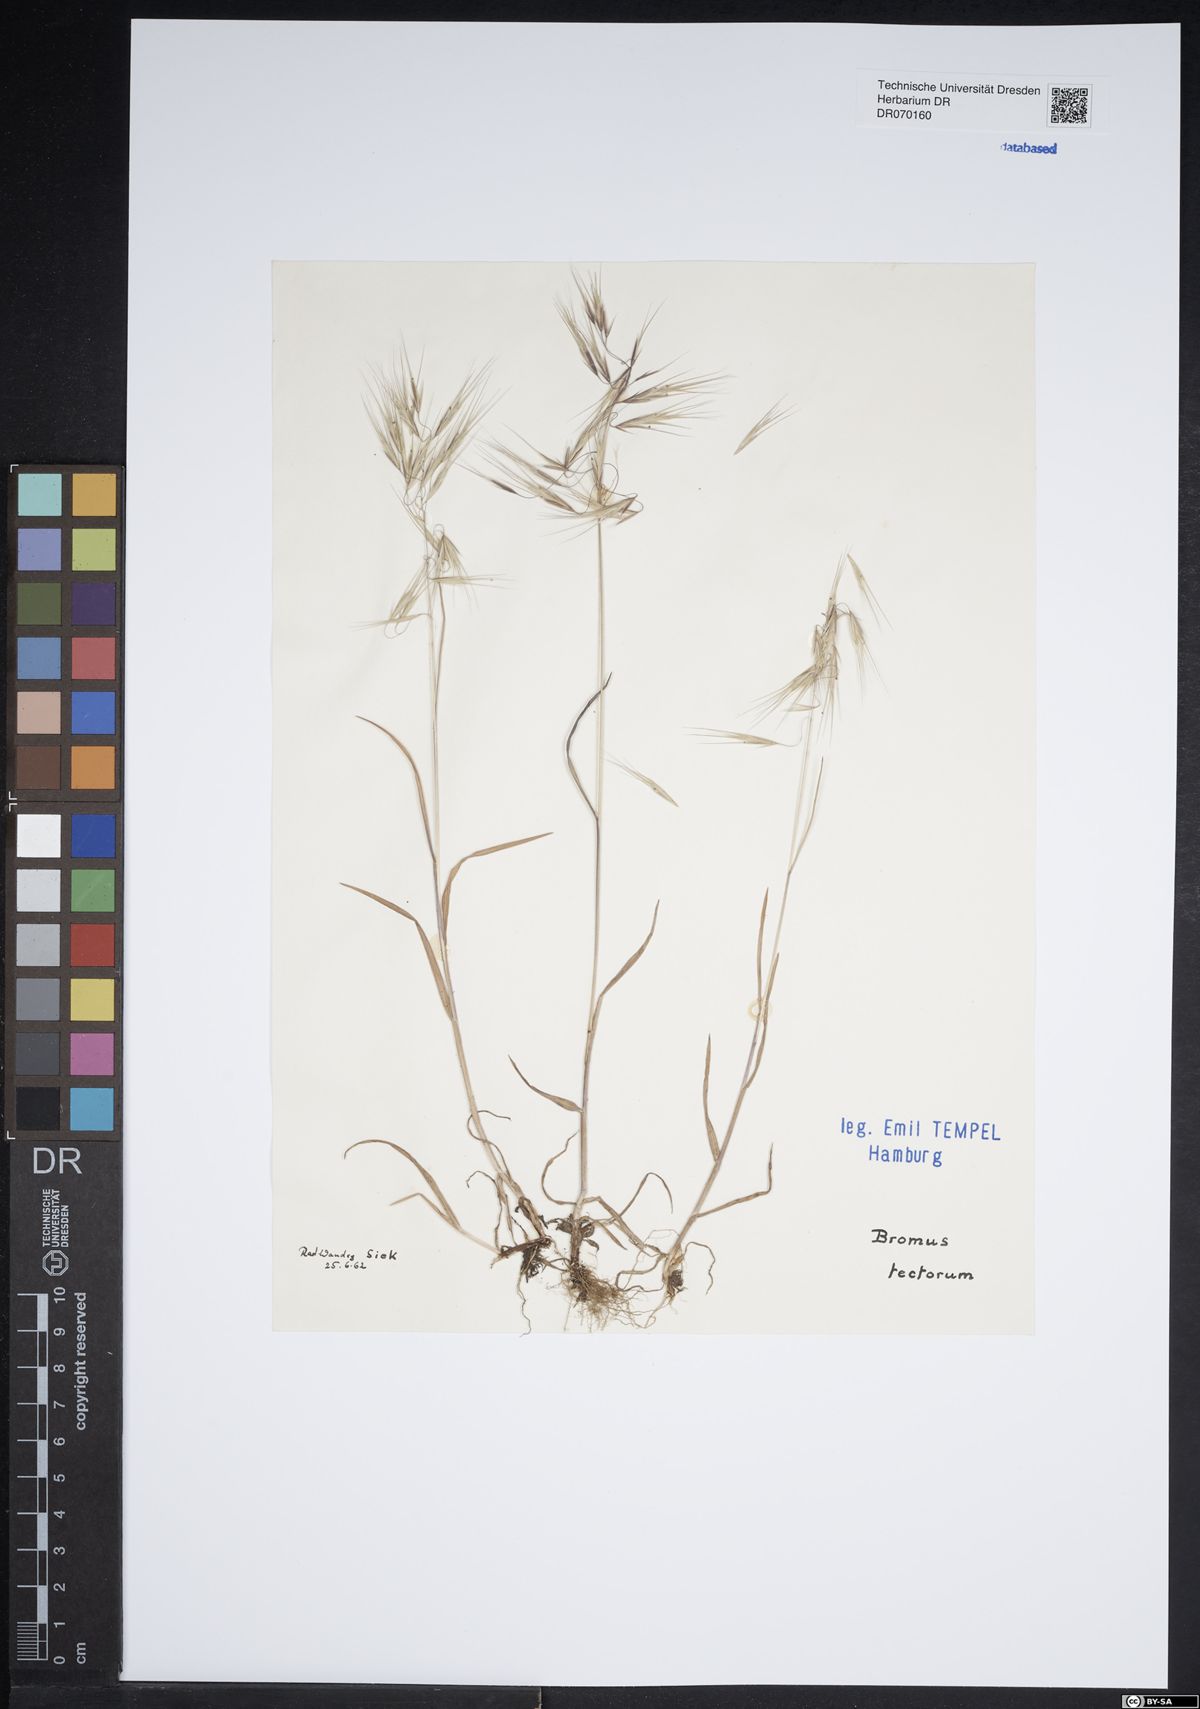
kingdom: Plantae
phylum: Tracheophyta
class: Liliopsida
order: Poales
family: Poaceae
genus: Bromus
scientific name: Bromus tectorum
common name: Cheatgrass
